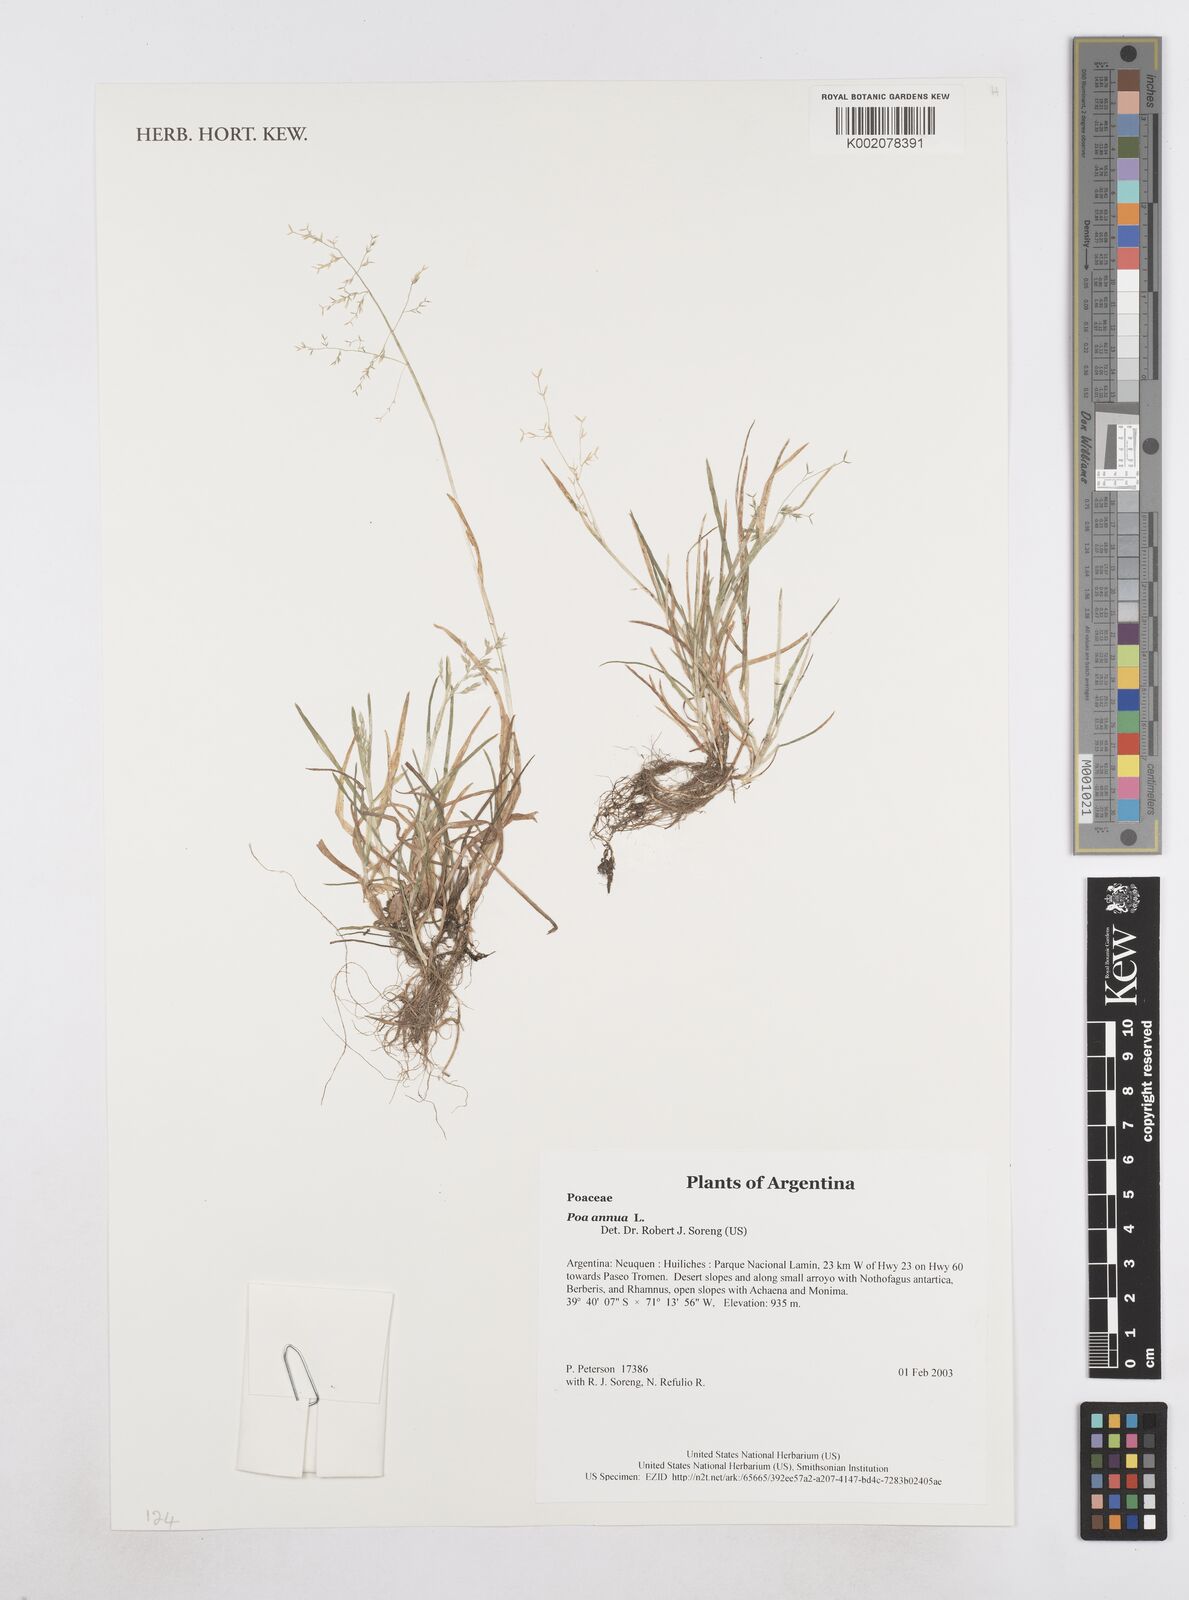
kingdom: Plantae
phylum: Tracheophyta
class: Liliopsida
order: Poales
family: Poaceae
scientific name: Poaceae
